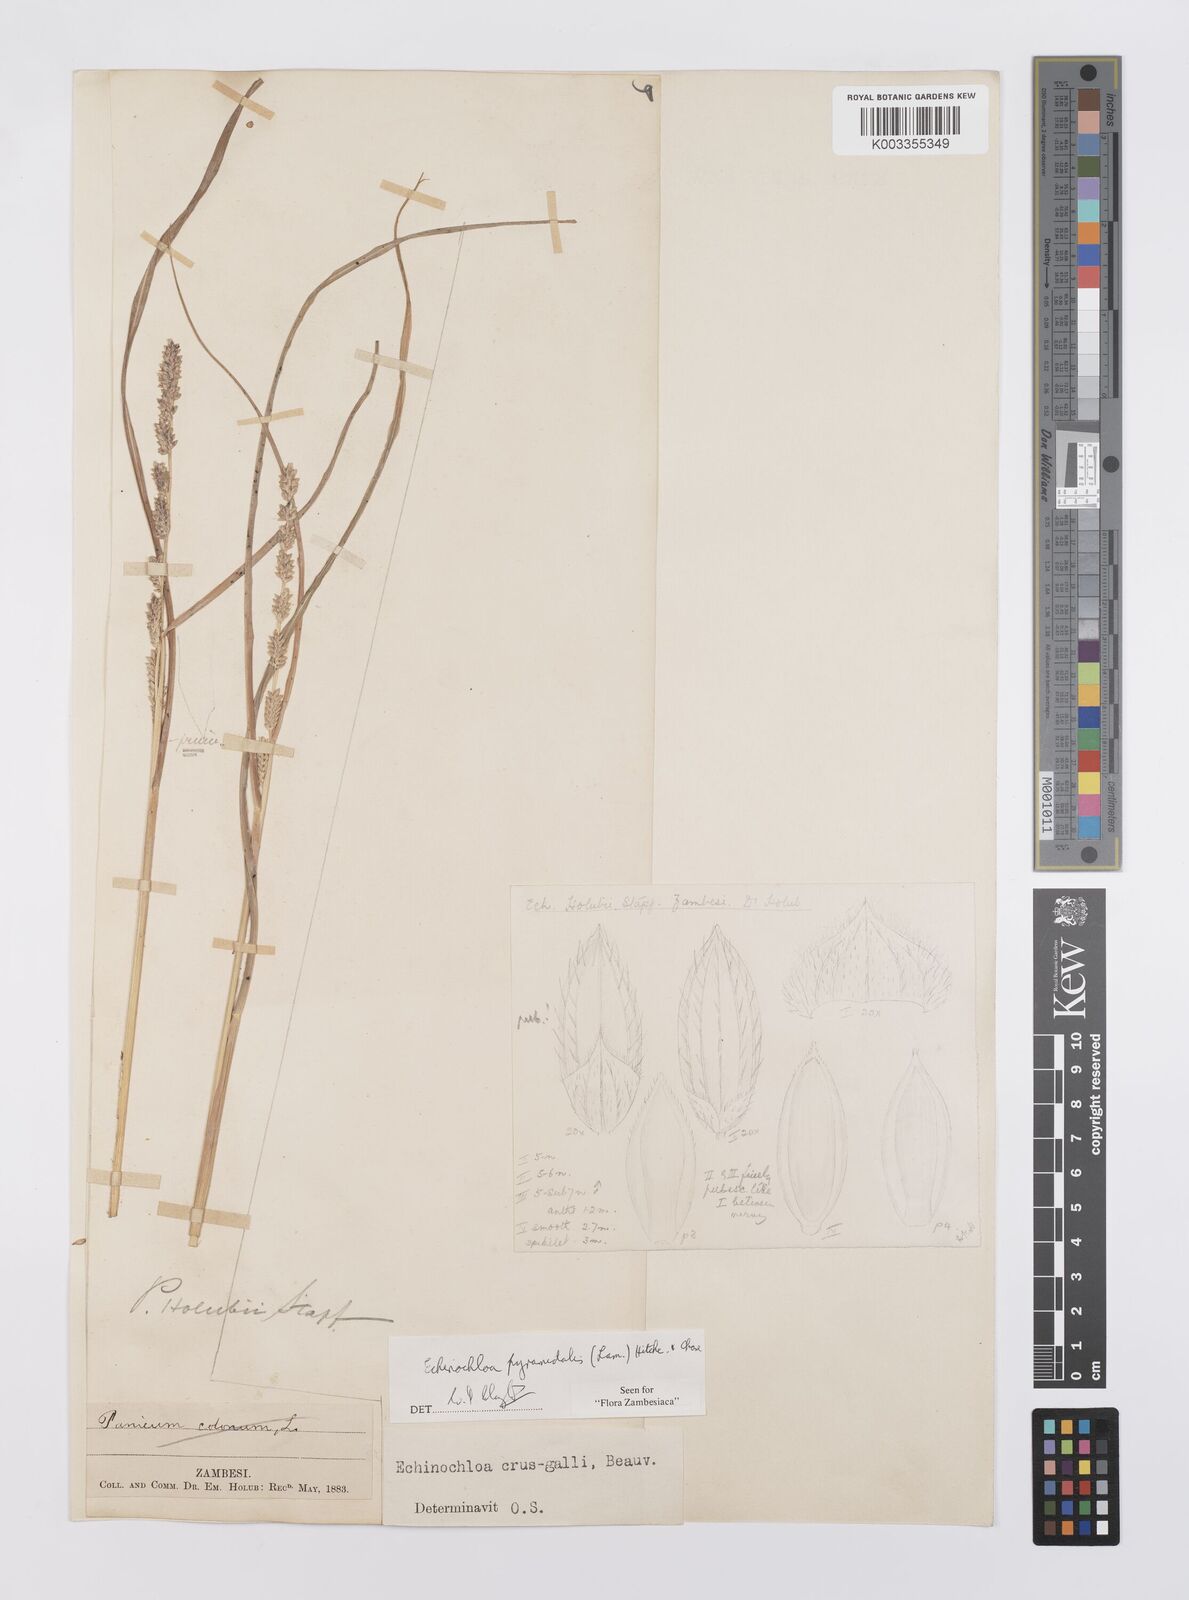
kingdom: Plantae
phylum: Tracheophyta
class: Liliopsida
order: Poales
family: Poaceae
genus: Echinochloa
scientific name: Echinochloa pyramidalis
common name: Antelope grass
